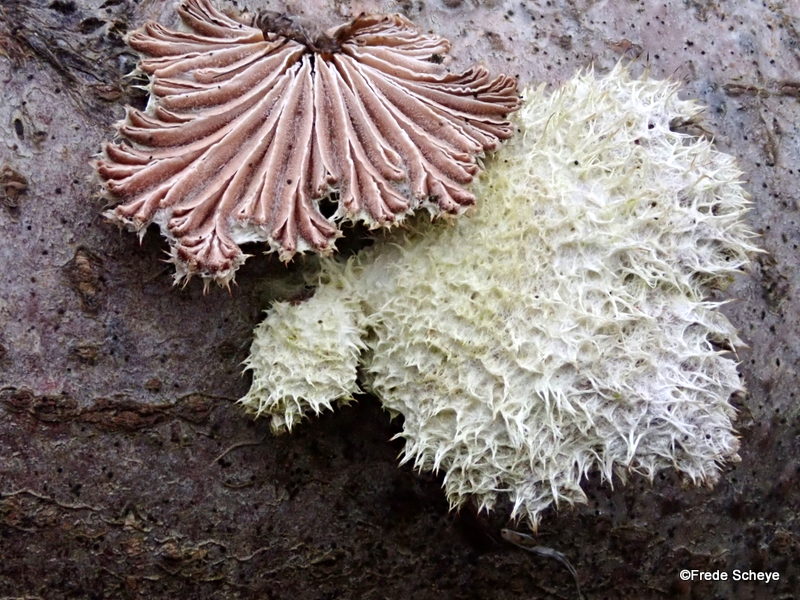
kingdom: Fungi
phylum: Basidiomycota
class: Agaricomycetes
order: Agaricales
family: Schizophyllaceae
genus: Schizophyllum
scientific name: Schizophyllum commune
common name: kløvblad
